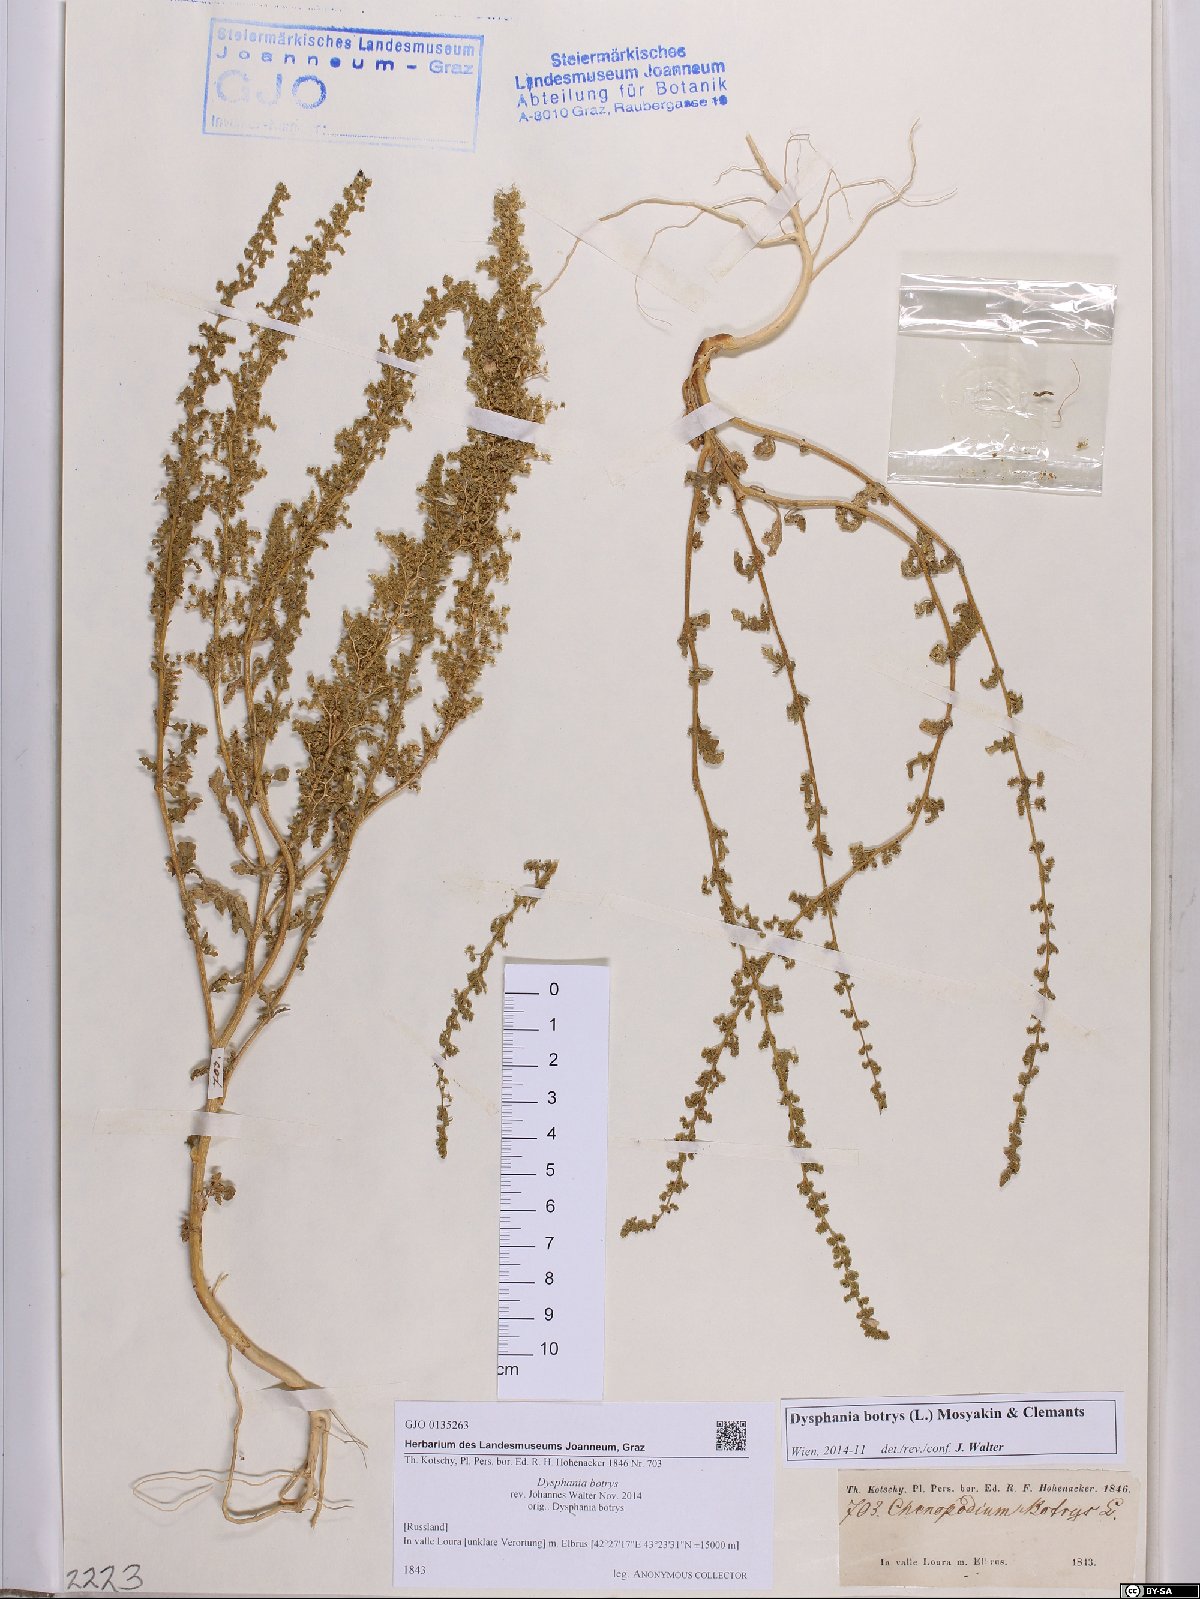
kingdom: Plantae
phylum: Tracheophyta
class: Magnoliopsida
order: Caryophyllales
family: Amaranthaceae
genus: Dysphania
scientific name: Dysphania botrys
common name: Feather-geranium
